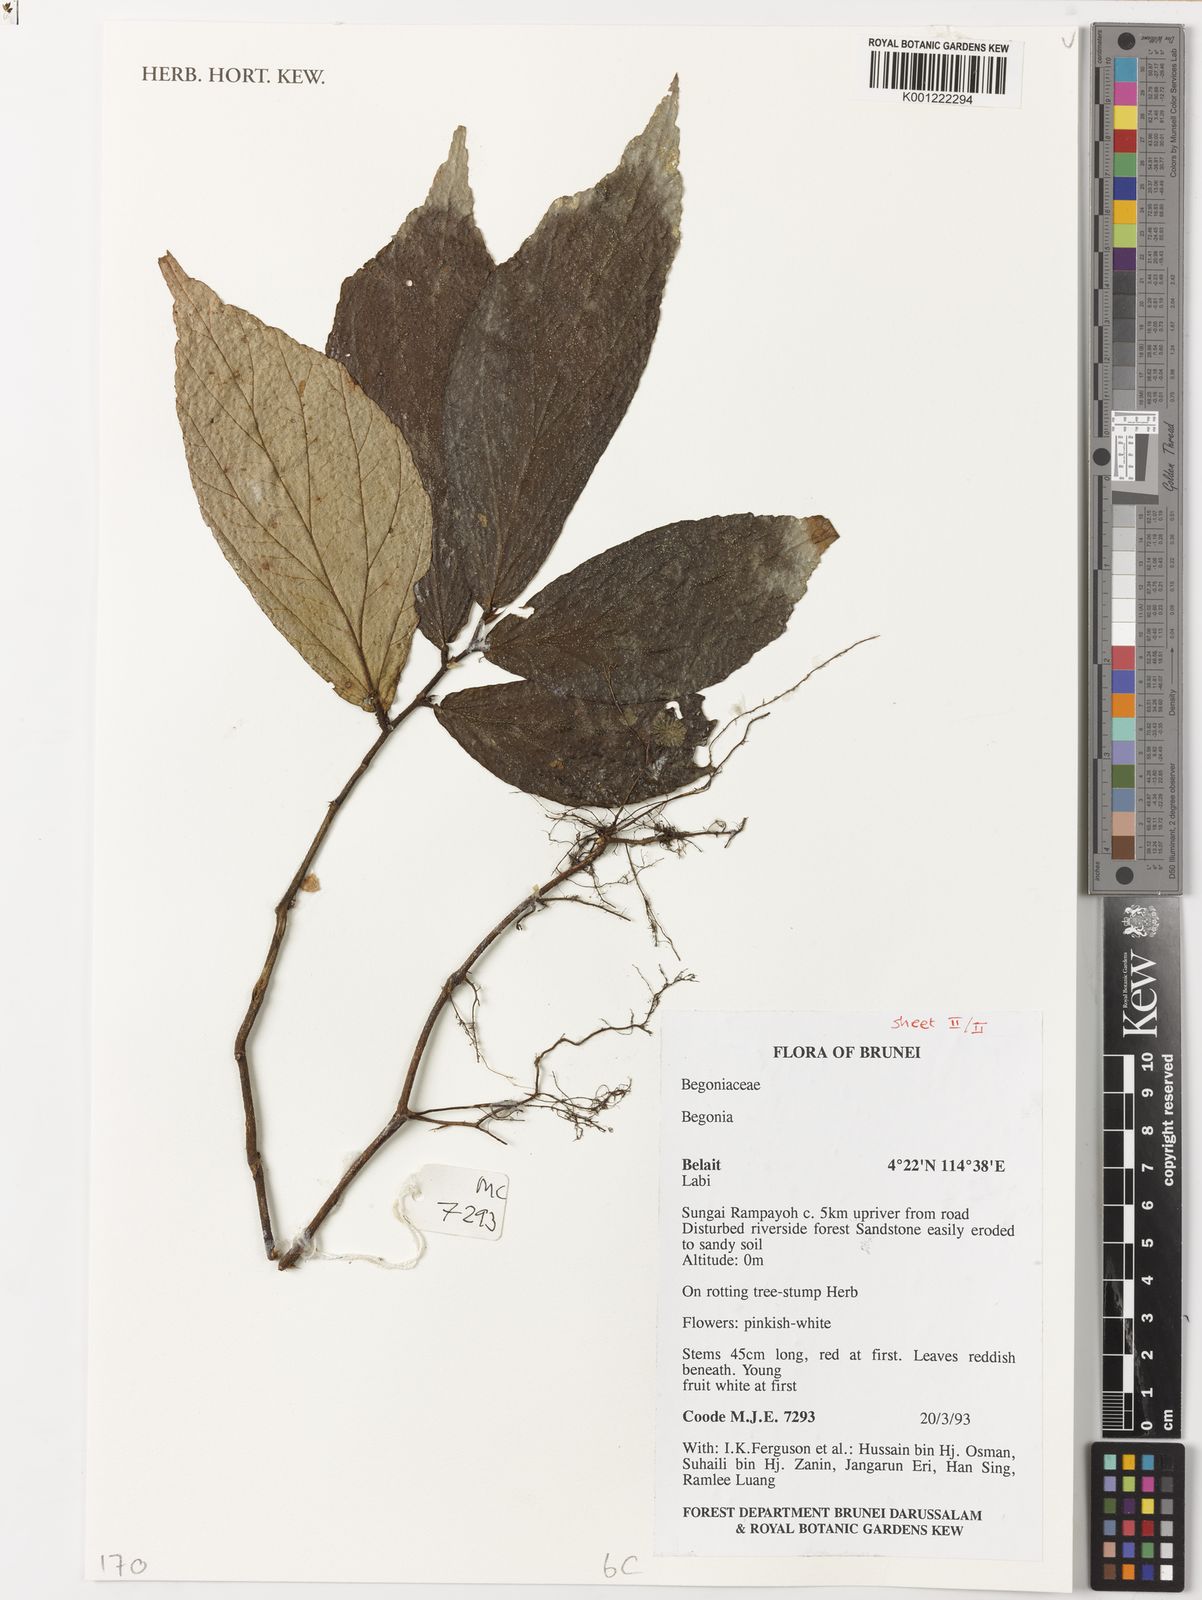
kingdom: Plantae
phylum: Tracheophyta
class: Magnoliopsida
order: Cucurbitales
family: Begoniaceae
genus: Begonia
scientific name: Begonia labiensis
